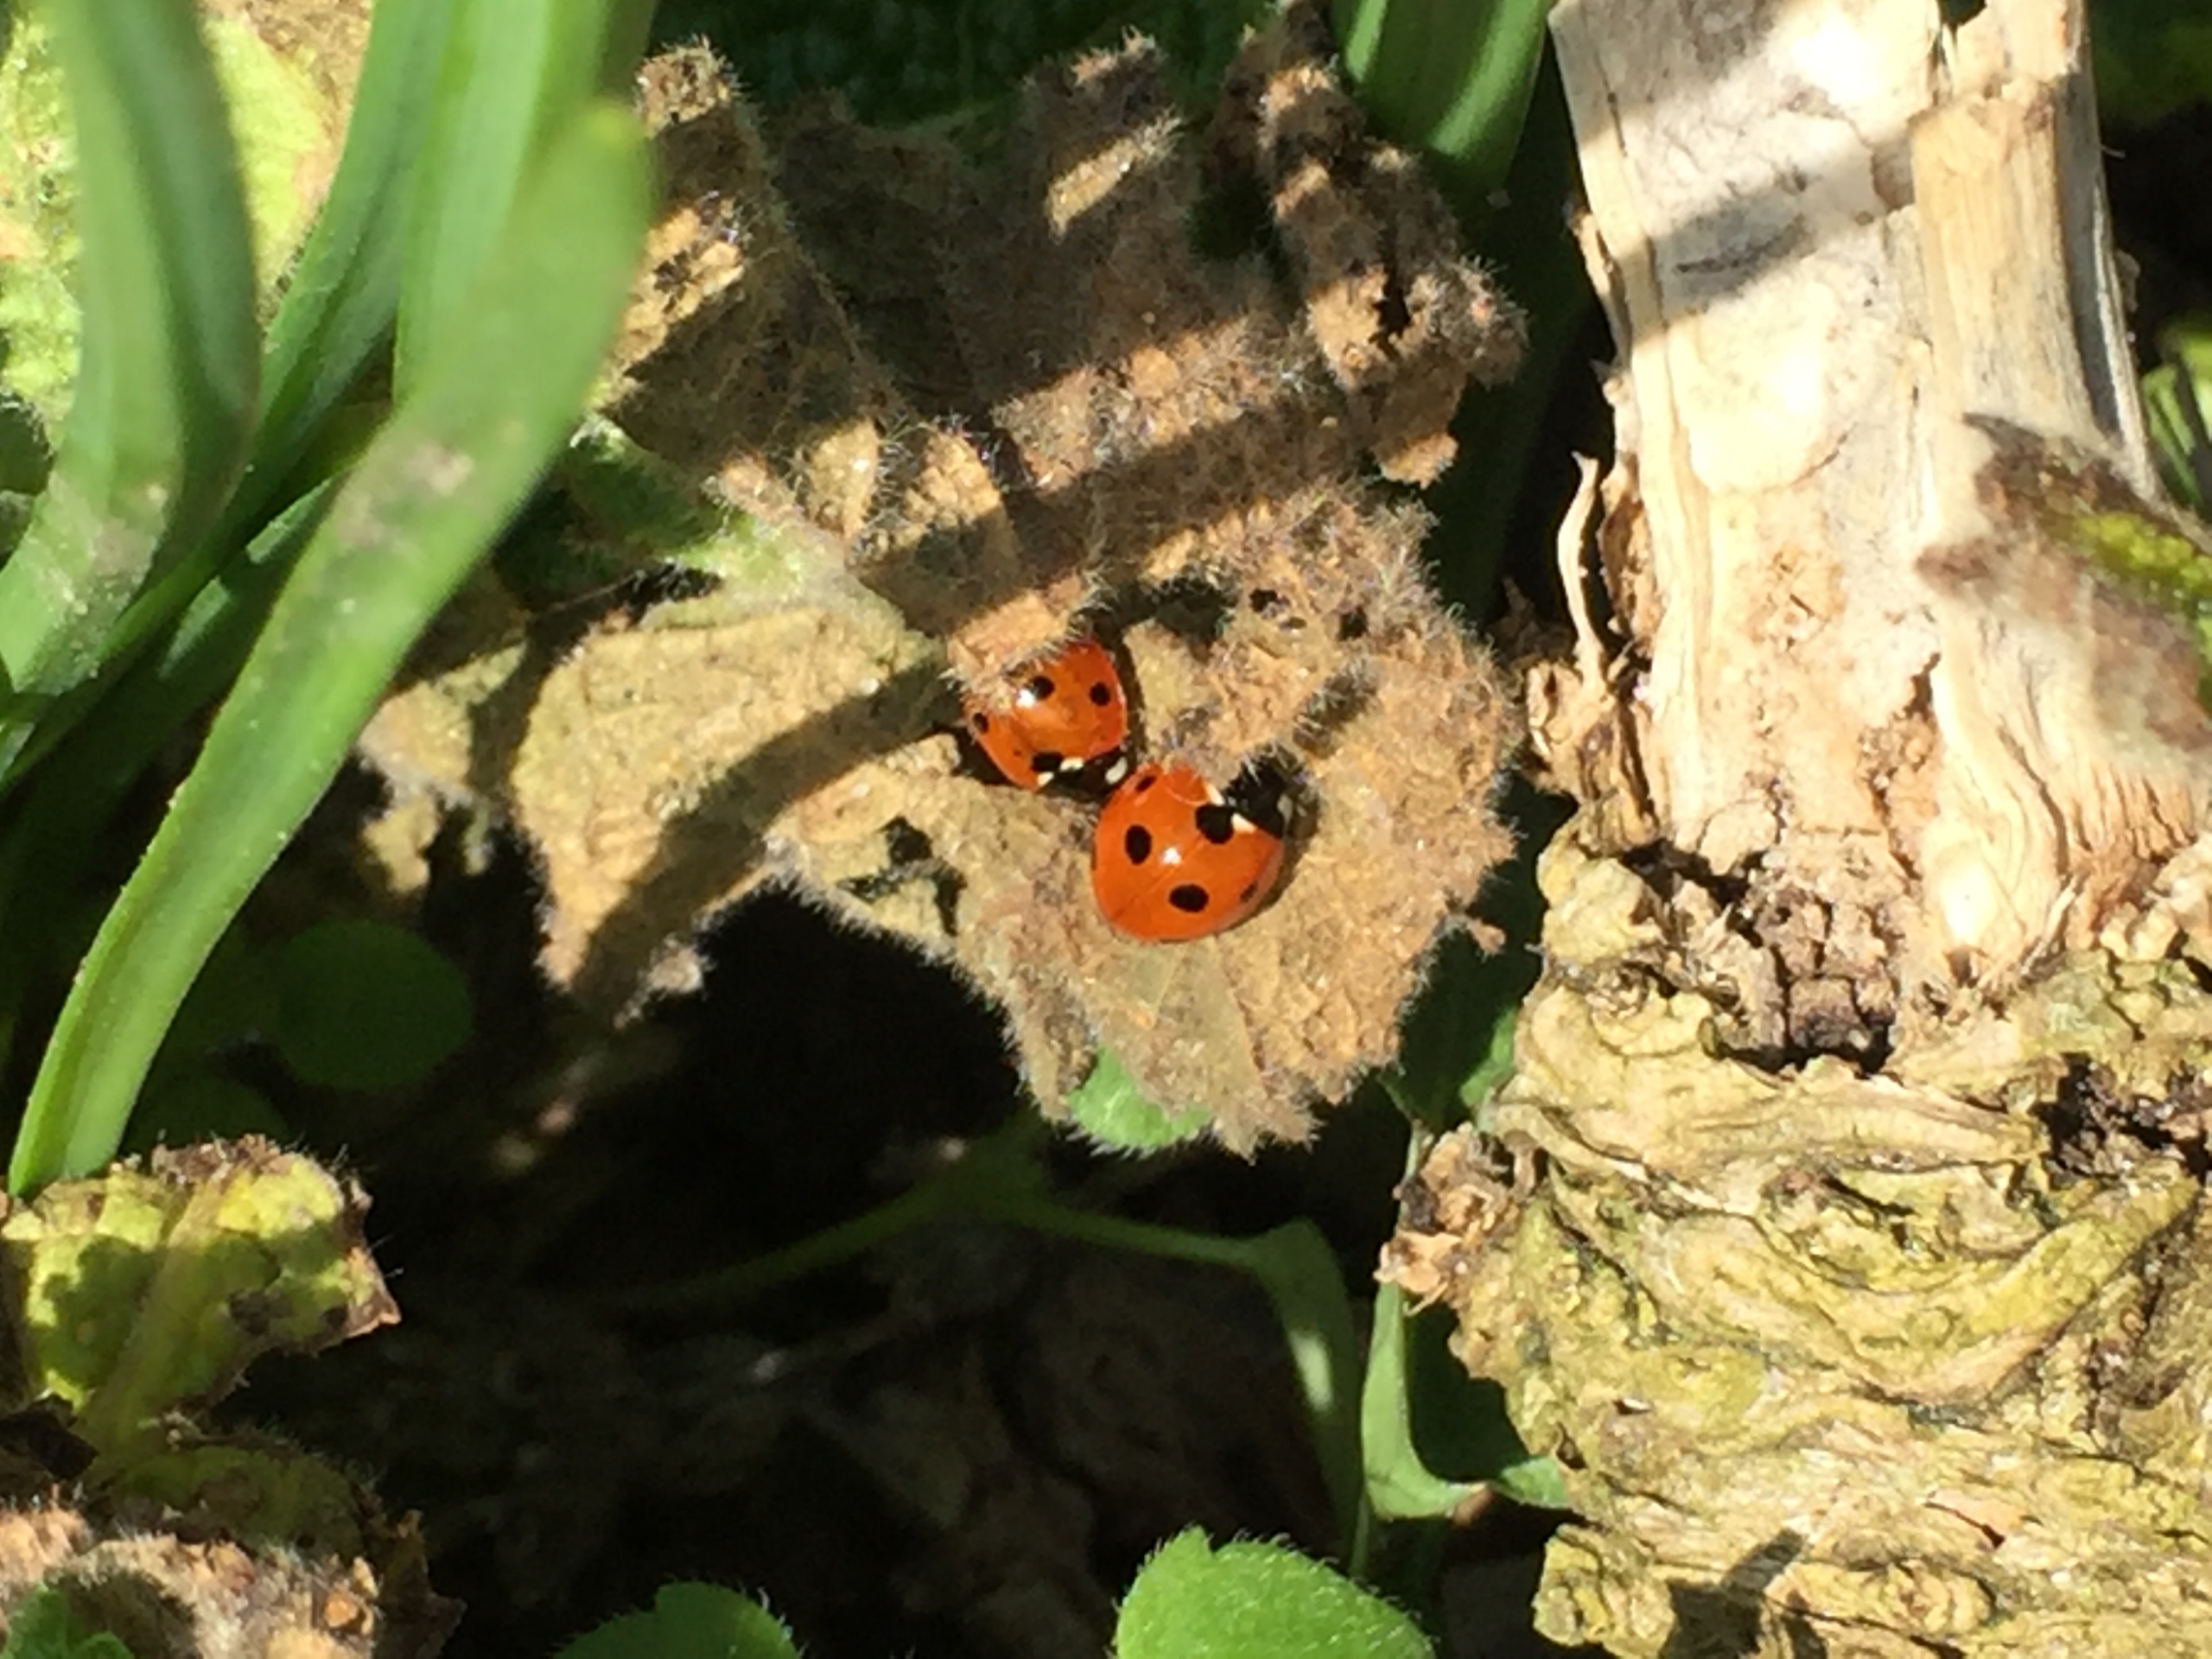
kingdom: Animalia
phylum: Arthropoda
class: Insecta
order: Coleoptera
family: Coccinellidae
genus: Coccinella
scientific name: Coccinella septempunctata
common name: Syvplettet mariehøne
